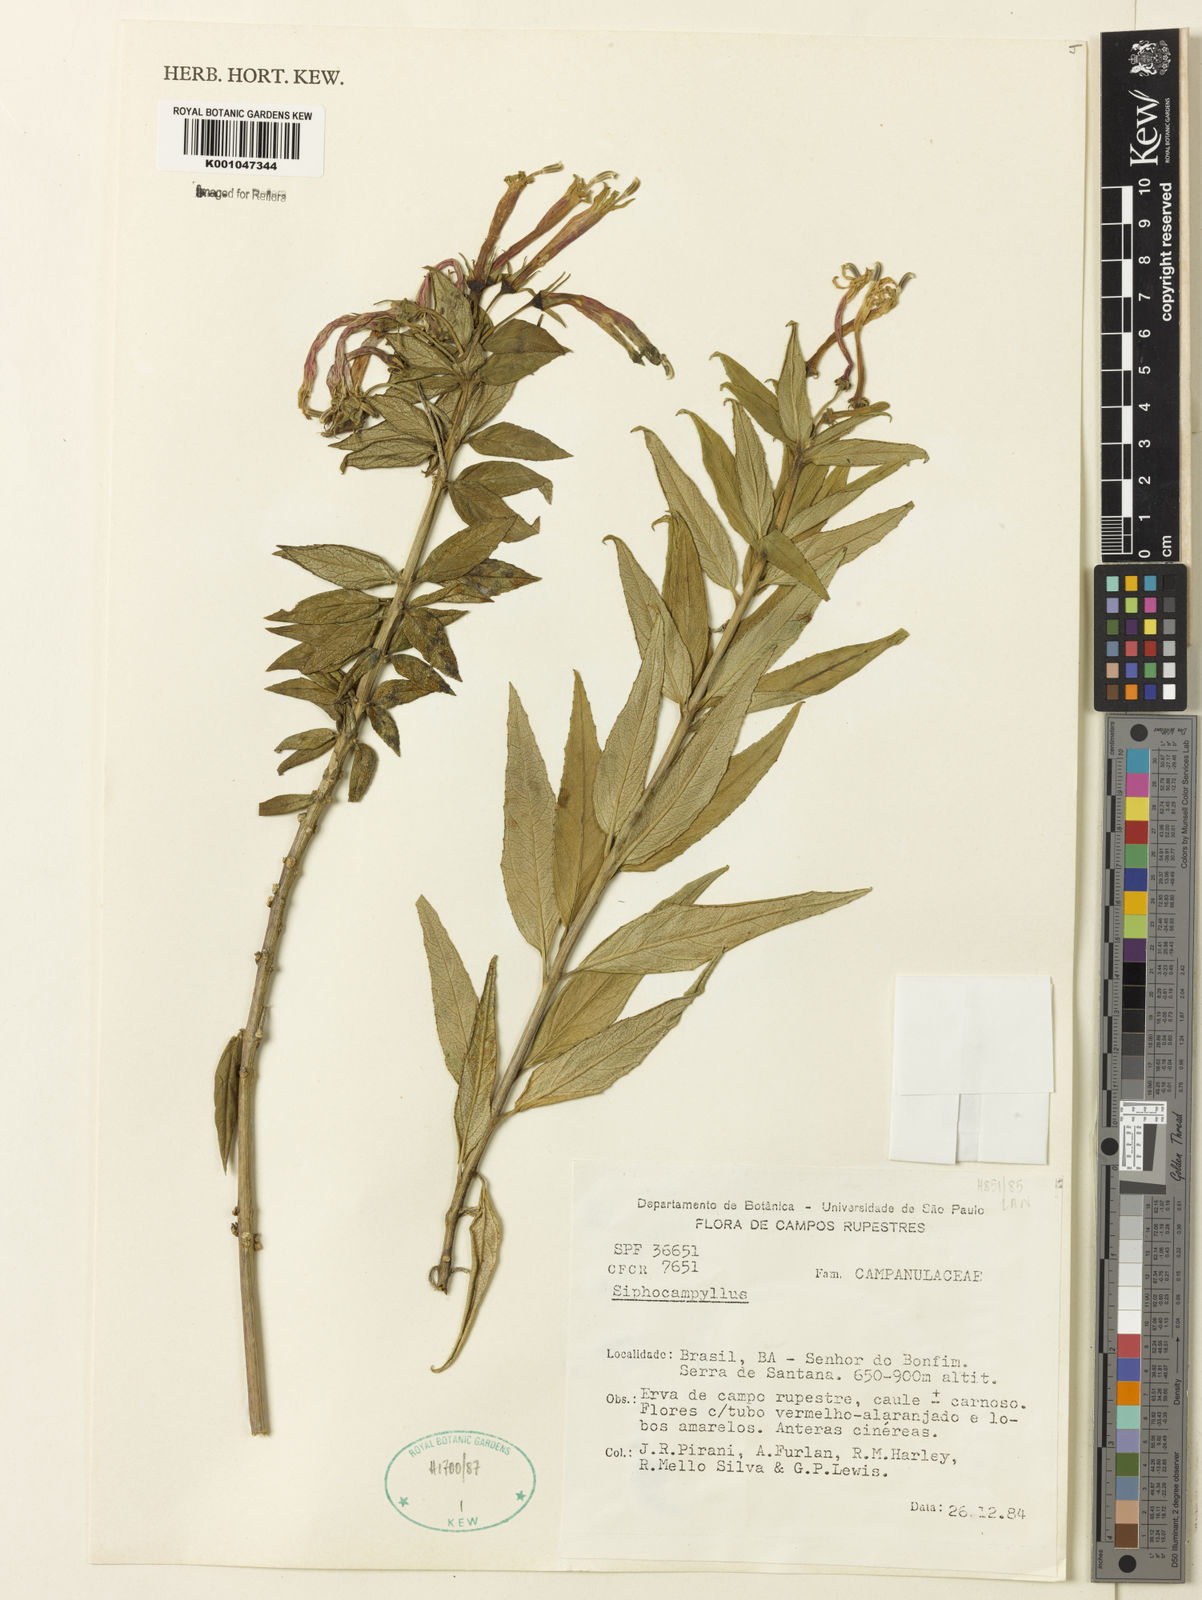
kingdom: Plantae
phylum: Tracheophyta
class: Magnoliopsida
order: Asterales
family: Campanulaceae
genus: Siphocampylus
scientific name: Siphocampylus
